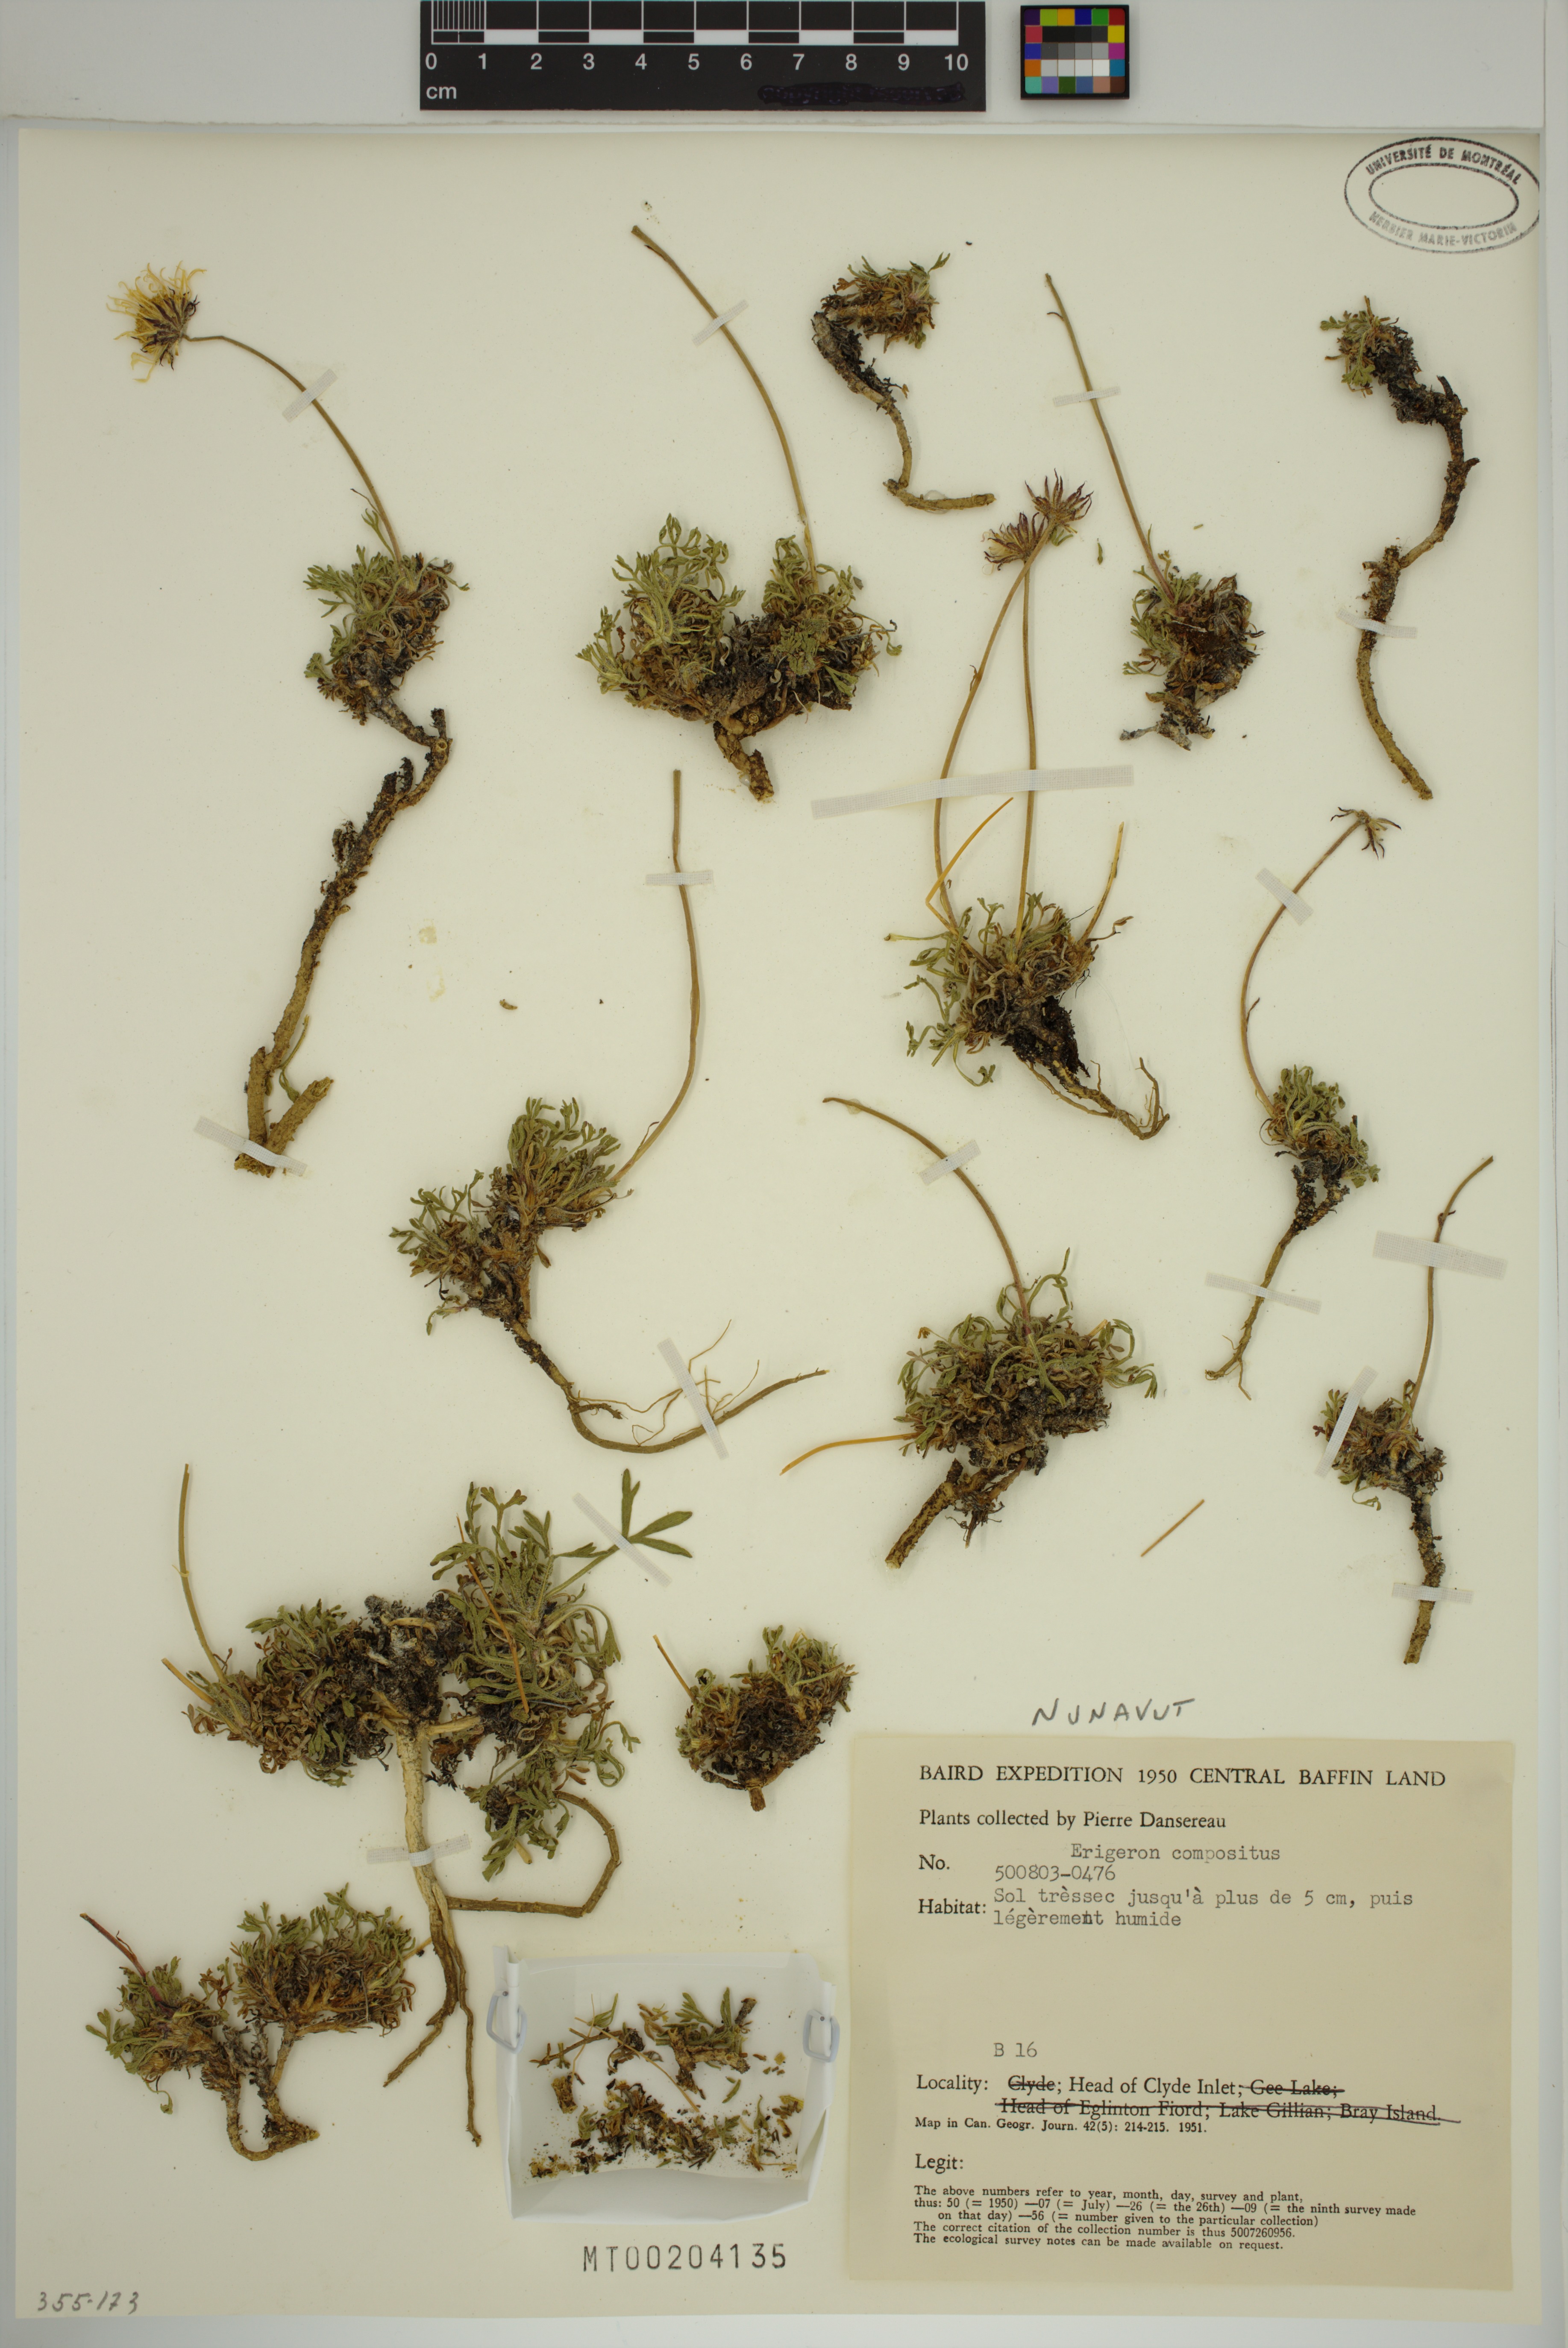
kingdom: Plantae
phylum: Tracheophyta
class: Magnoliopsida
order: Asterales
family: Asteraceae
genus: Erigeron
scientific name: Erigeron compositus
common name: Dwarf mountain fleabane
